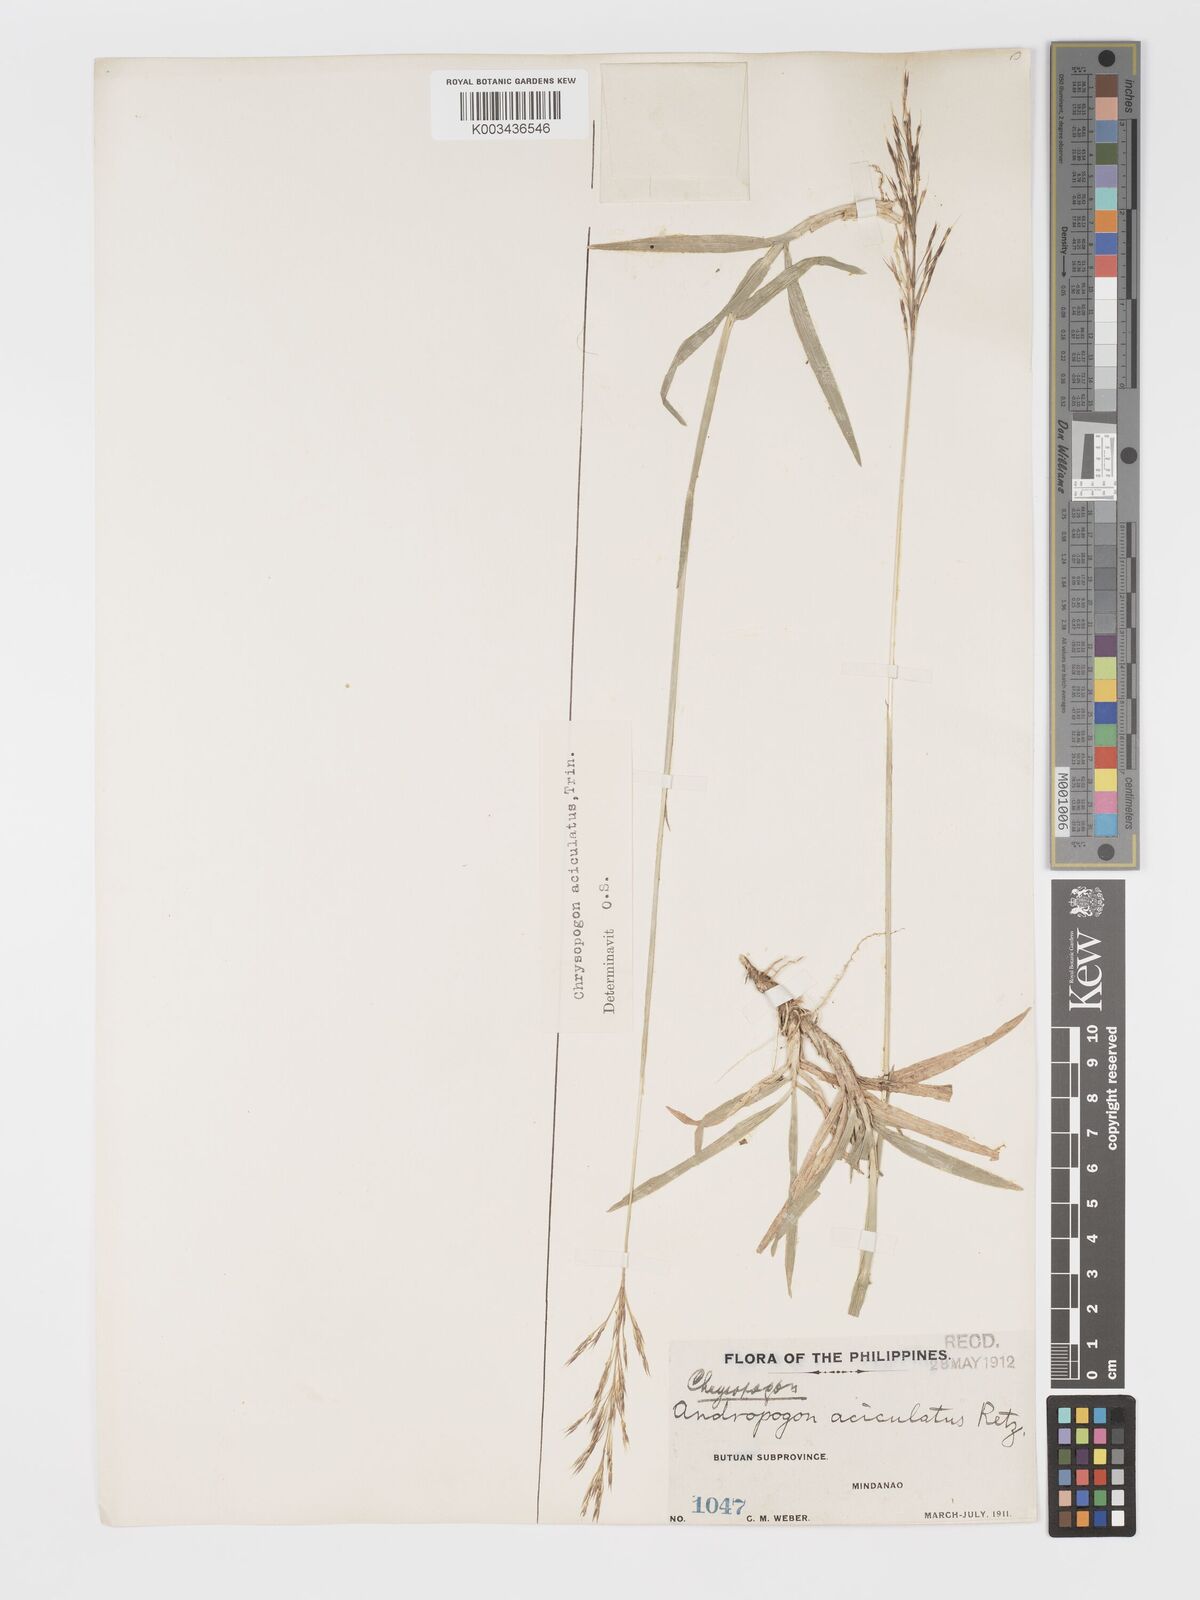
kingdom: Plantae
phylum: Tracheophyta
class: Liliopsida
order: Poales
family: Poaceae
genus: Chrysopogon
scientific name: Chrysopogon aciculatus
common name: Pilipiliula
